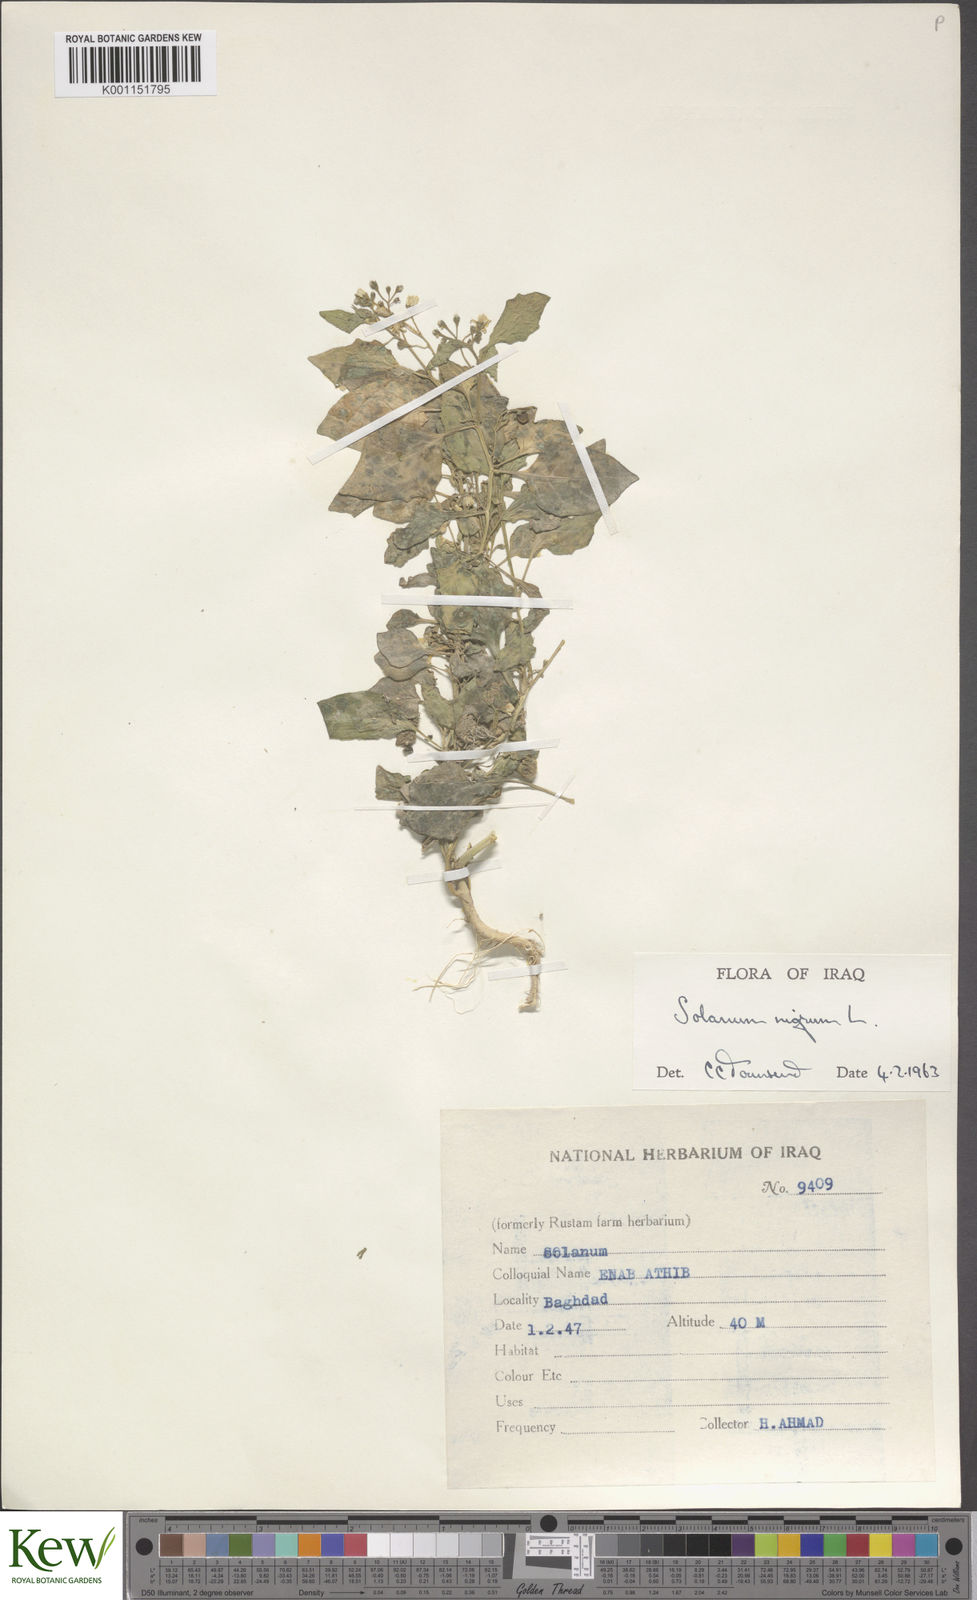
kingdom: Plantae
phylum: Tracheophyta
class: Magnoliopsida
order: Solanales
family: Solanaceae
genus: Solanum
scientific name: Solanum nigrum
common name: Black nightshade
